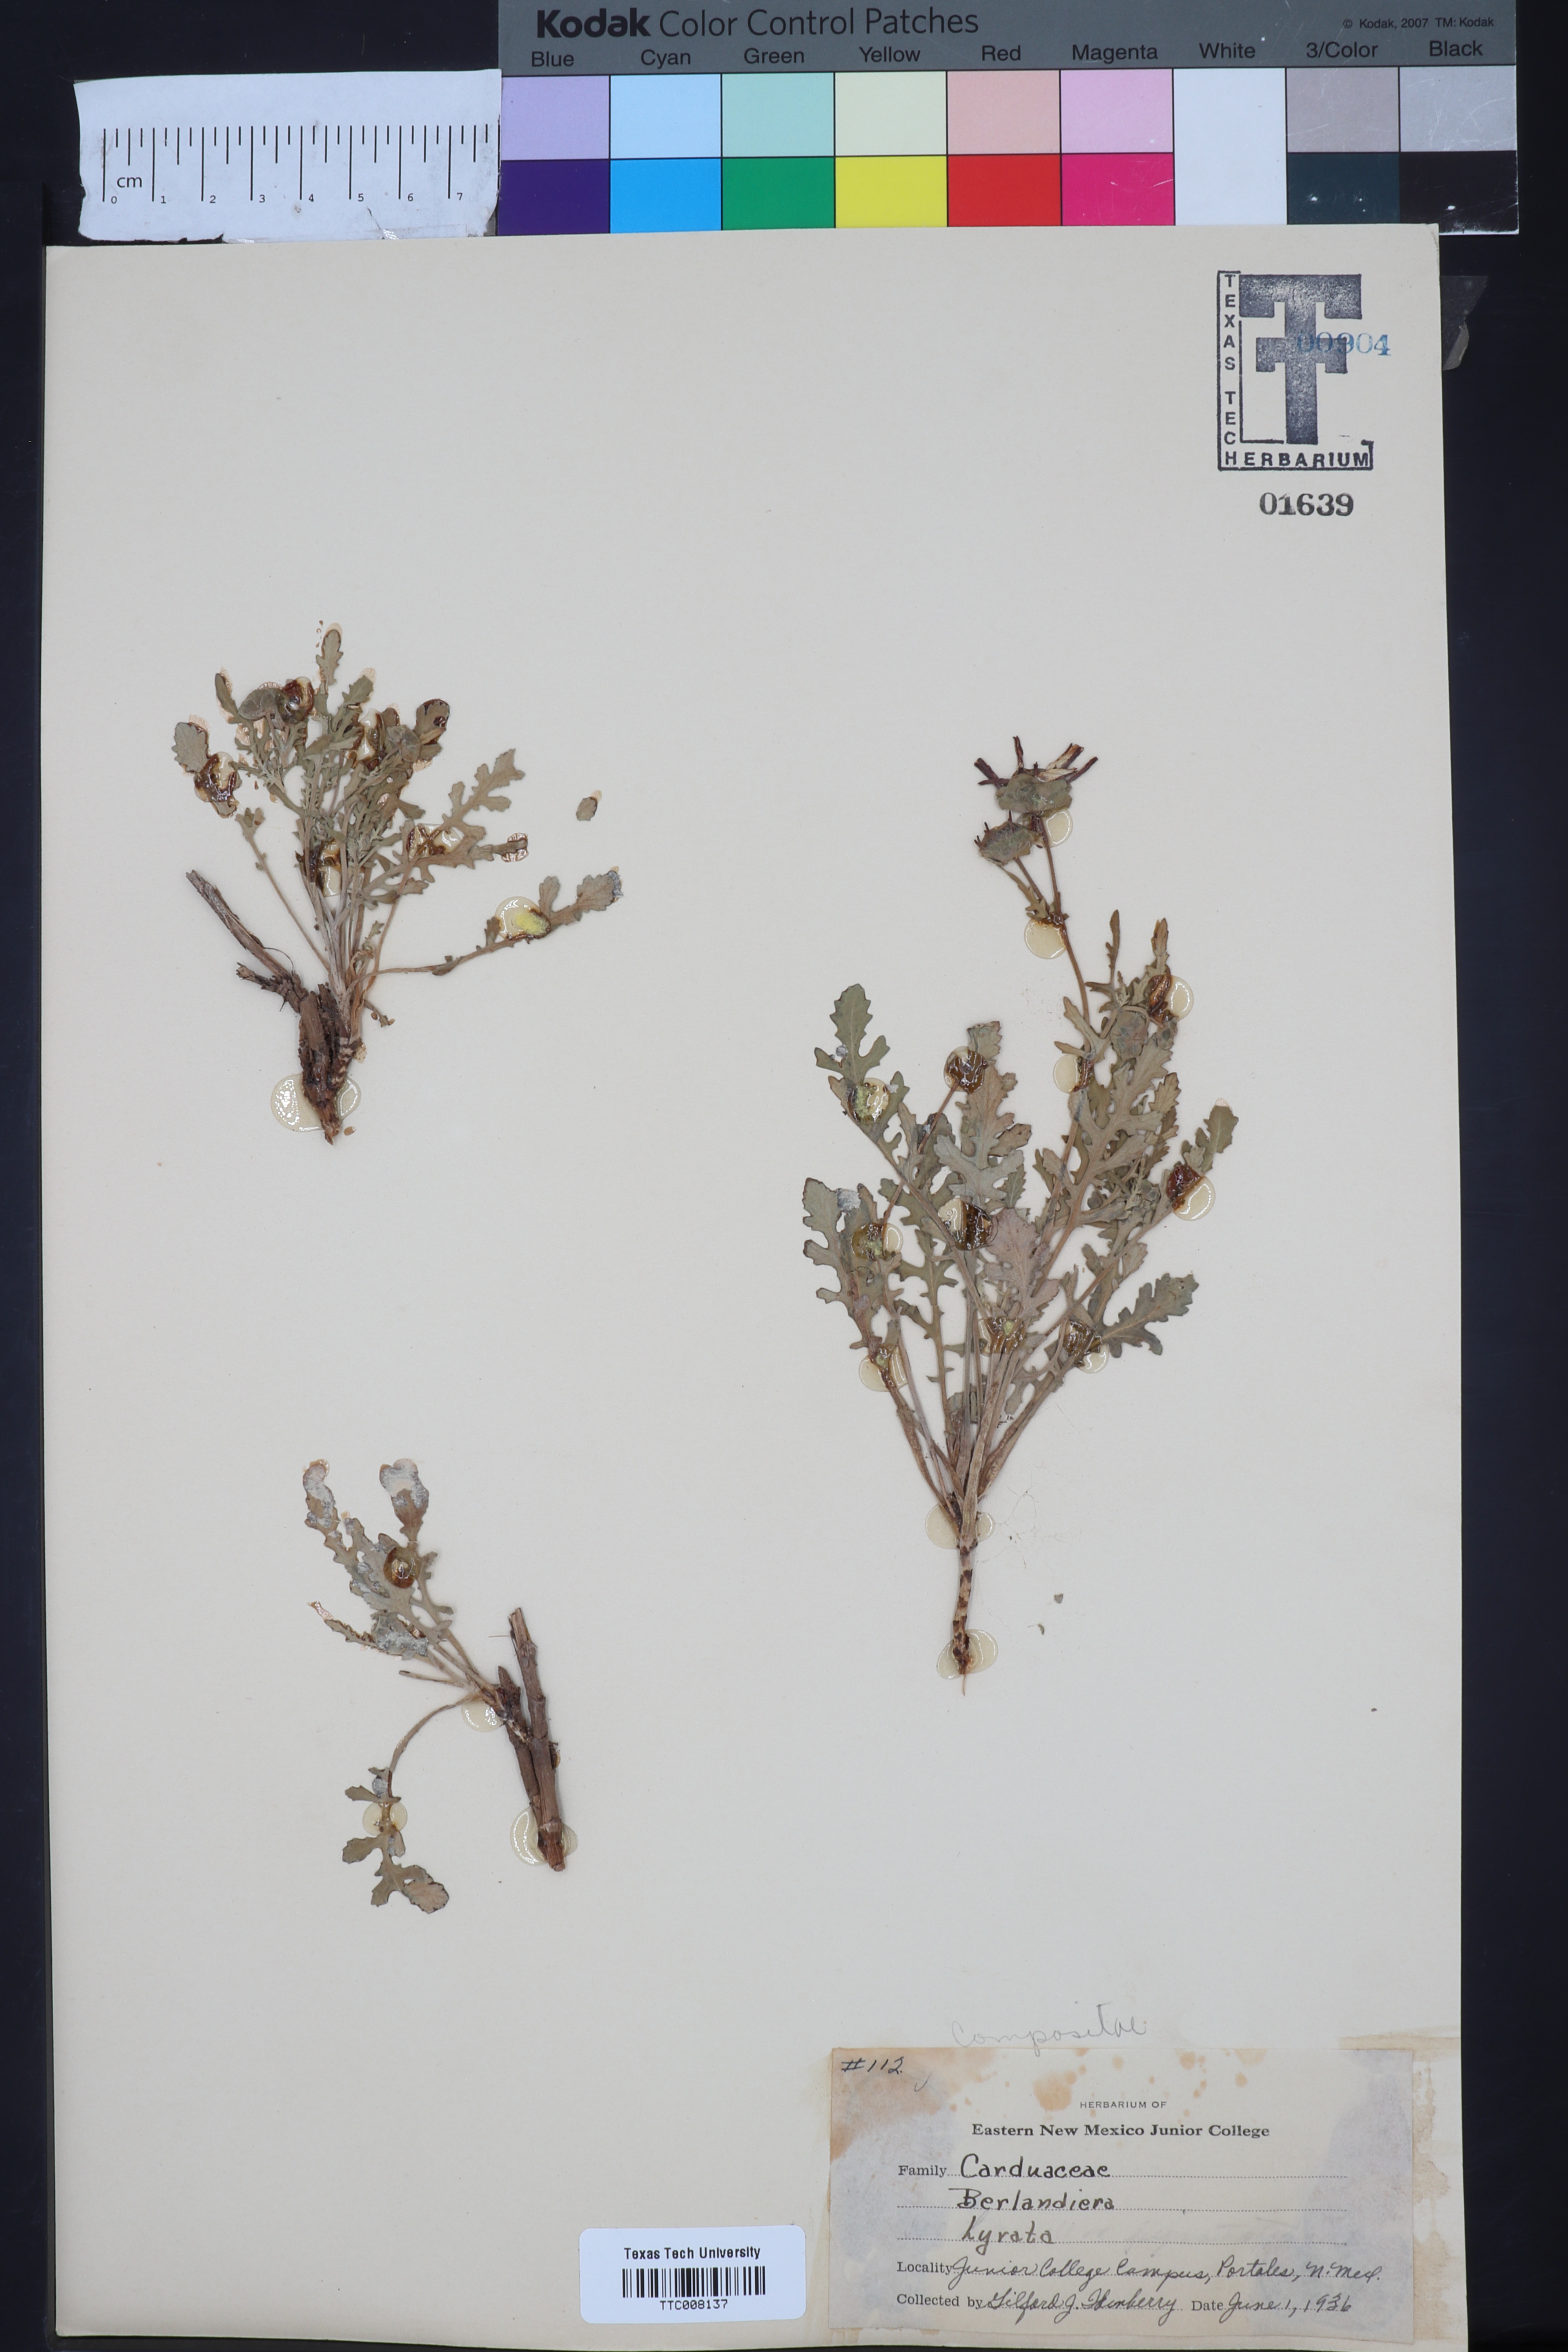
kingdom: Plantae
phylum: Tracheophyta
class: Magnoliopsida
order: Asterales
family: Asteraceae
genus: Berlandiera
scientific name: Berlandiera texana
